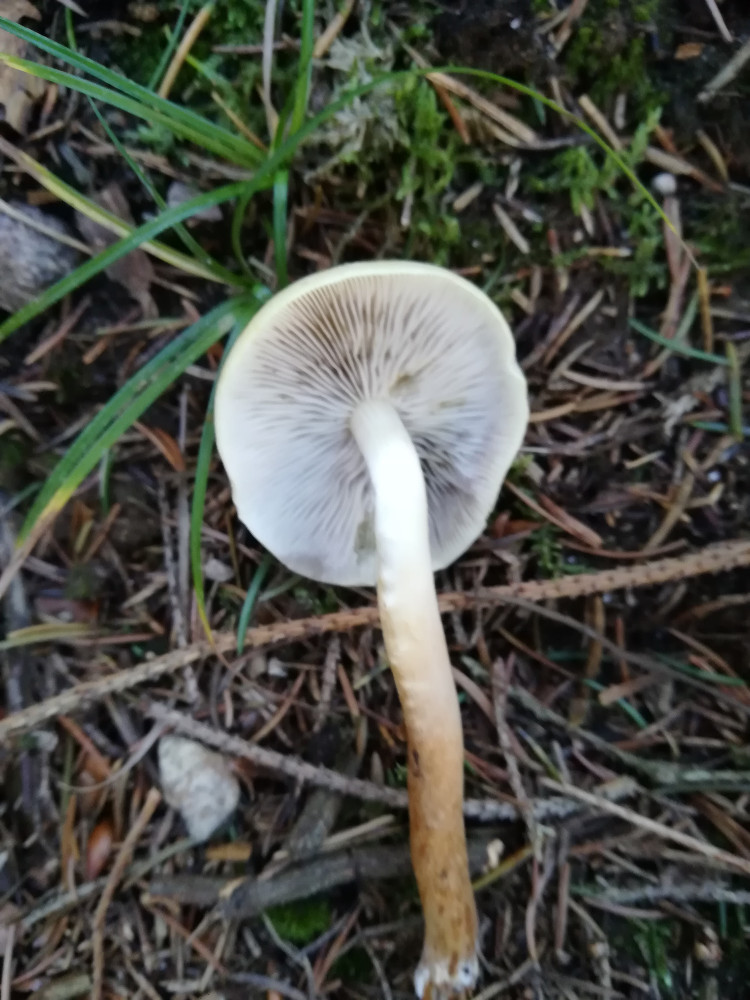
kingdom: Fungi
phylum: Basidiomycota
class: Agaricomycetes
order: Agaricales
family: Strophariaceae
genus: Hypholoma
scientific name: Hypholoma capnoides
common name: gran-svovlhat
